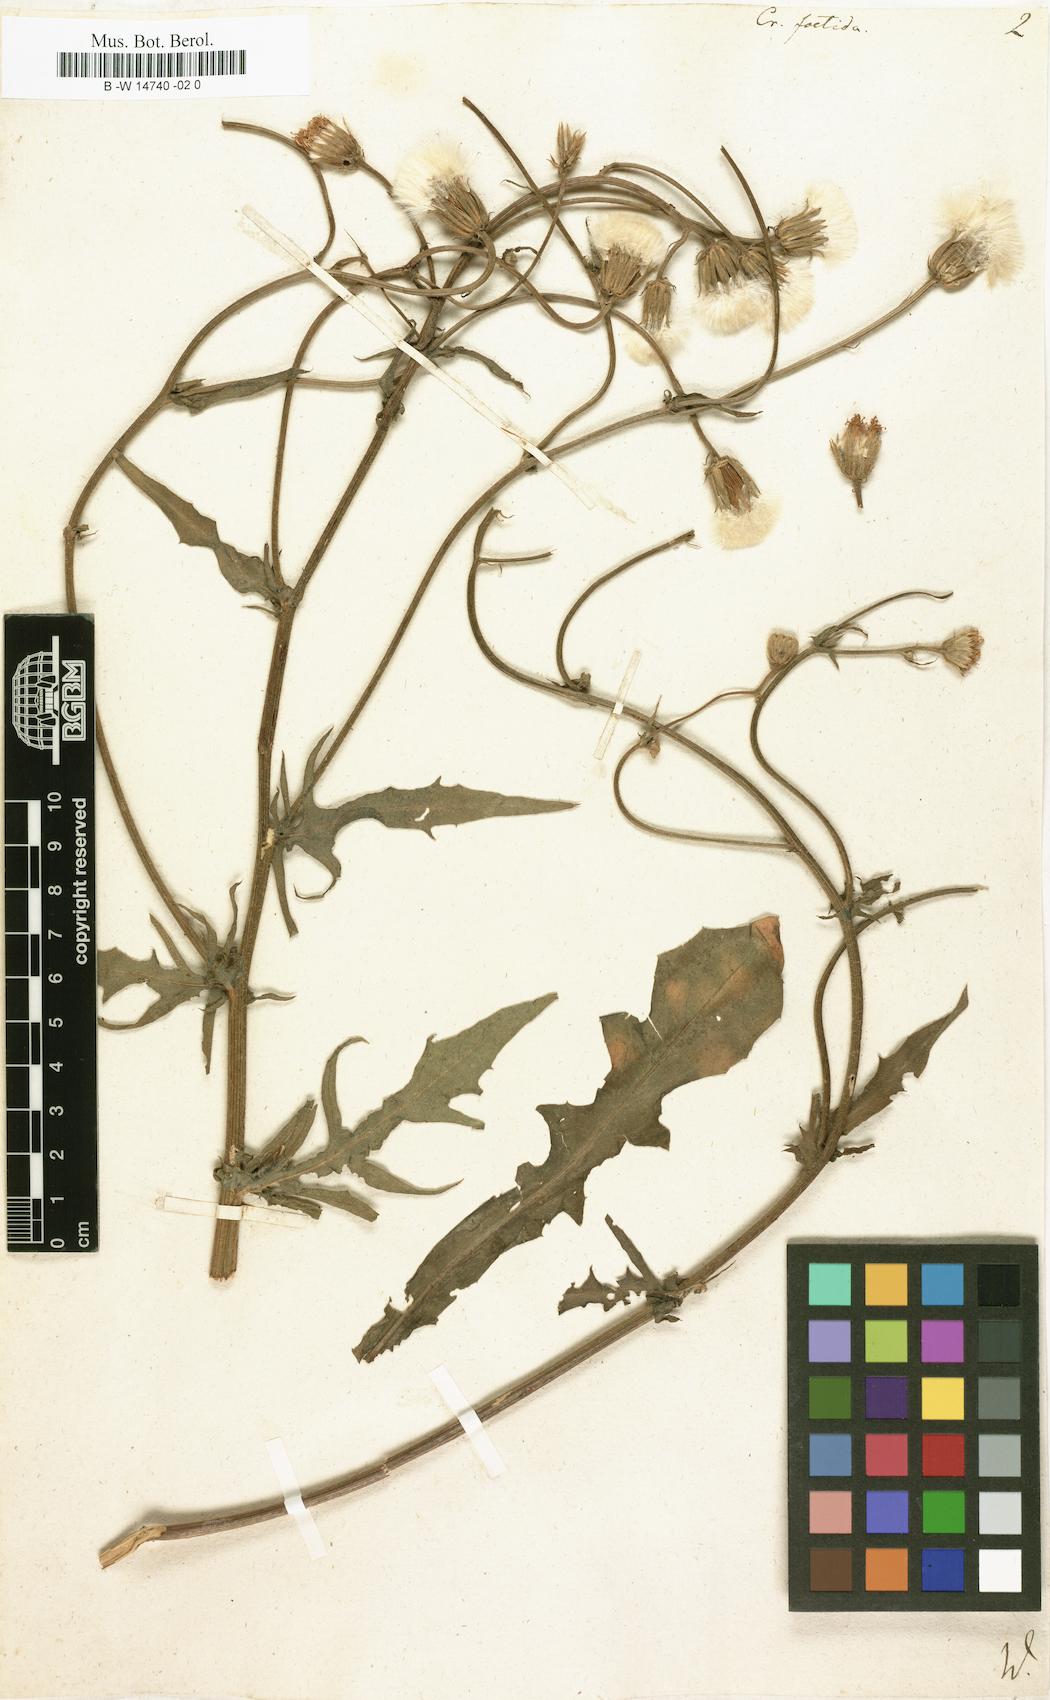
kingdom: Plantae
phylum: Tracheophyta
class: Magnoliopsida
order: Asterales
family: Asteraceae
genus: Crepis
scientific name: Crepis foetida
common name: Stinking hawk's-beard
